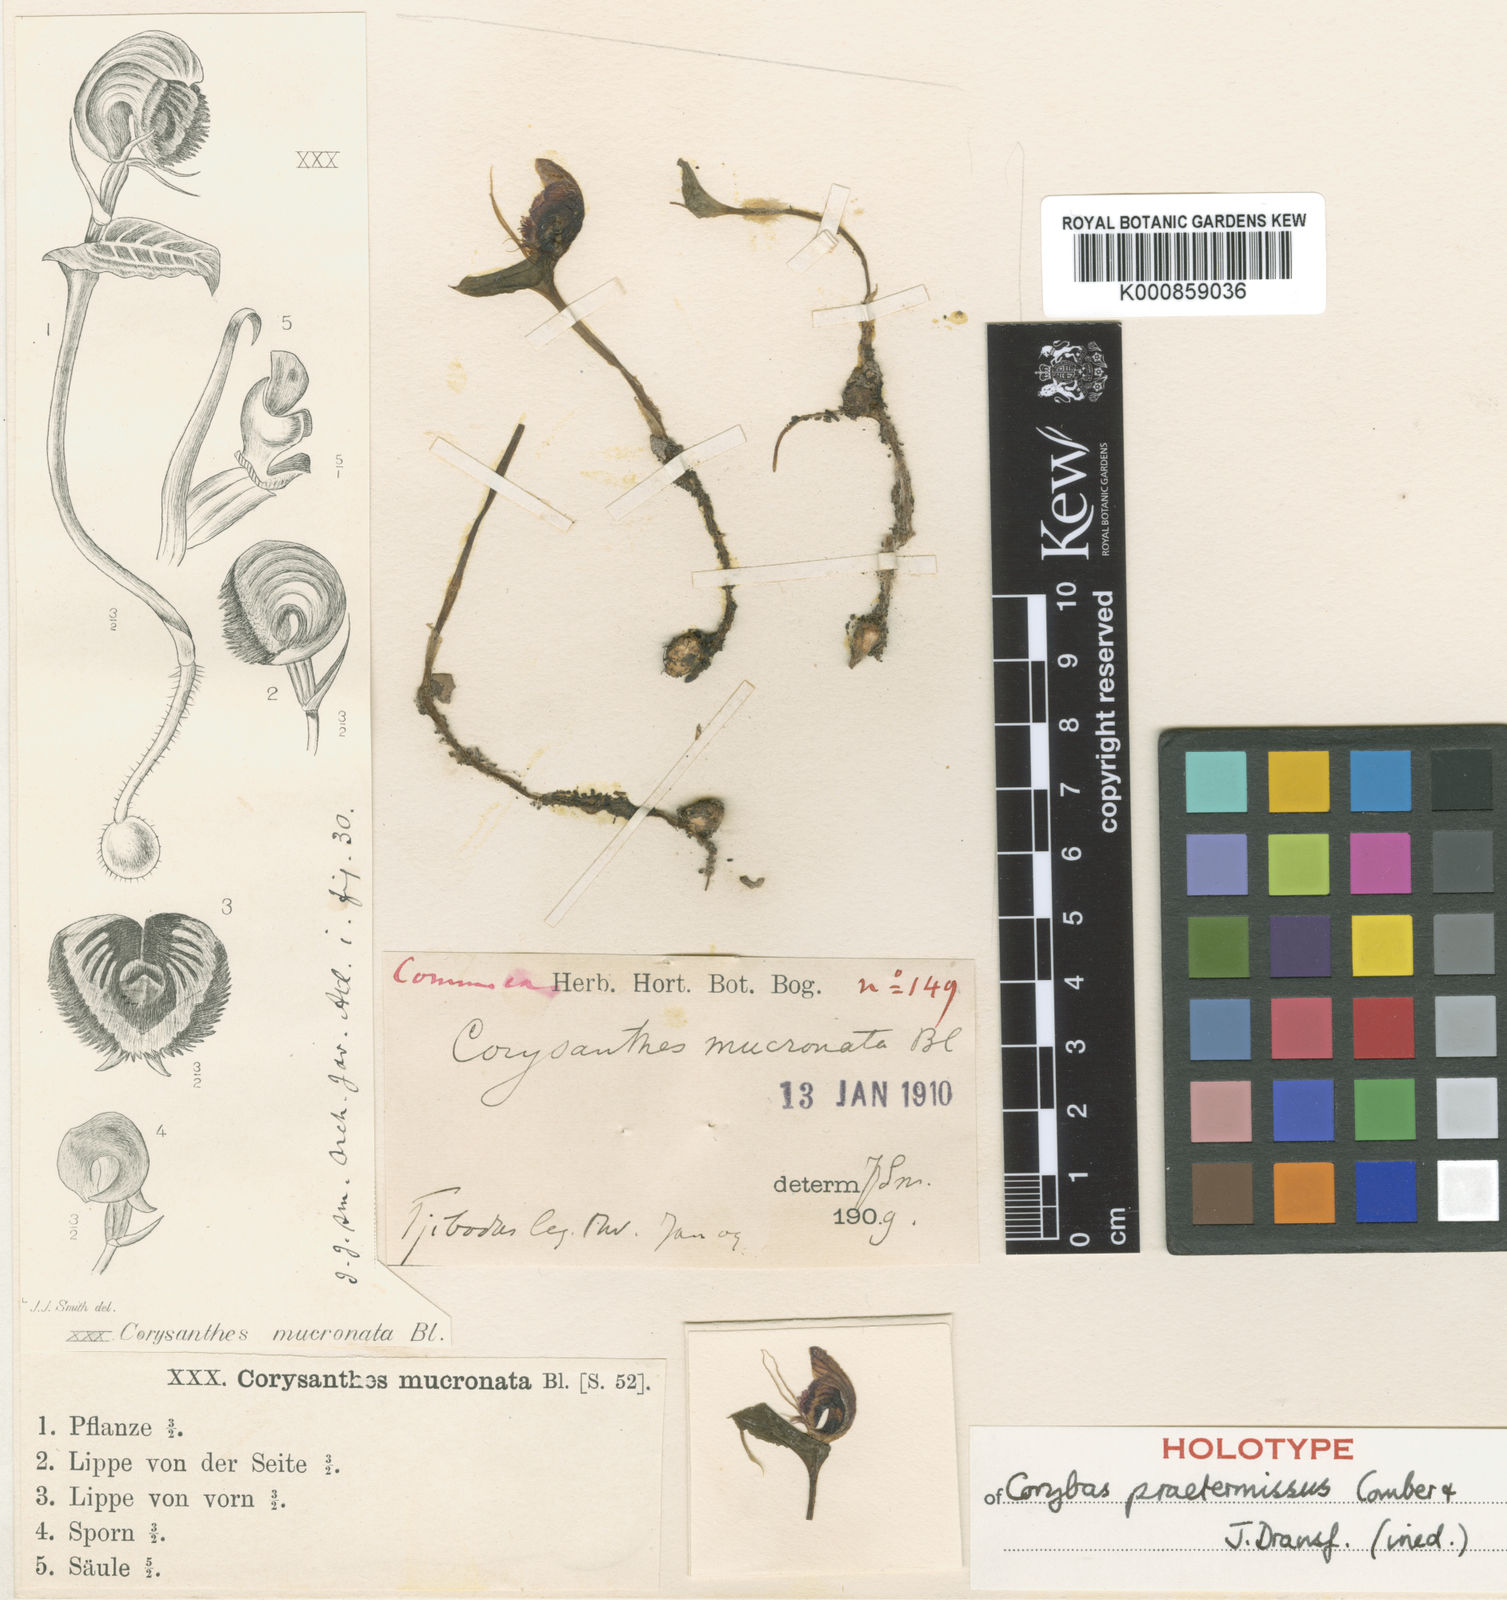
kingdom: Plantae
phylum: Tracheophyta
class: Liliopsida
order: Asparagales
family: Orchidaceae
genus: Corybas
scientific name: Corybas praetermissus
